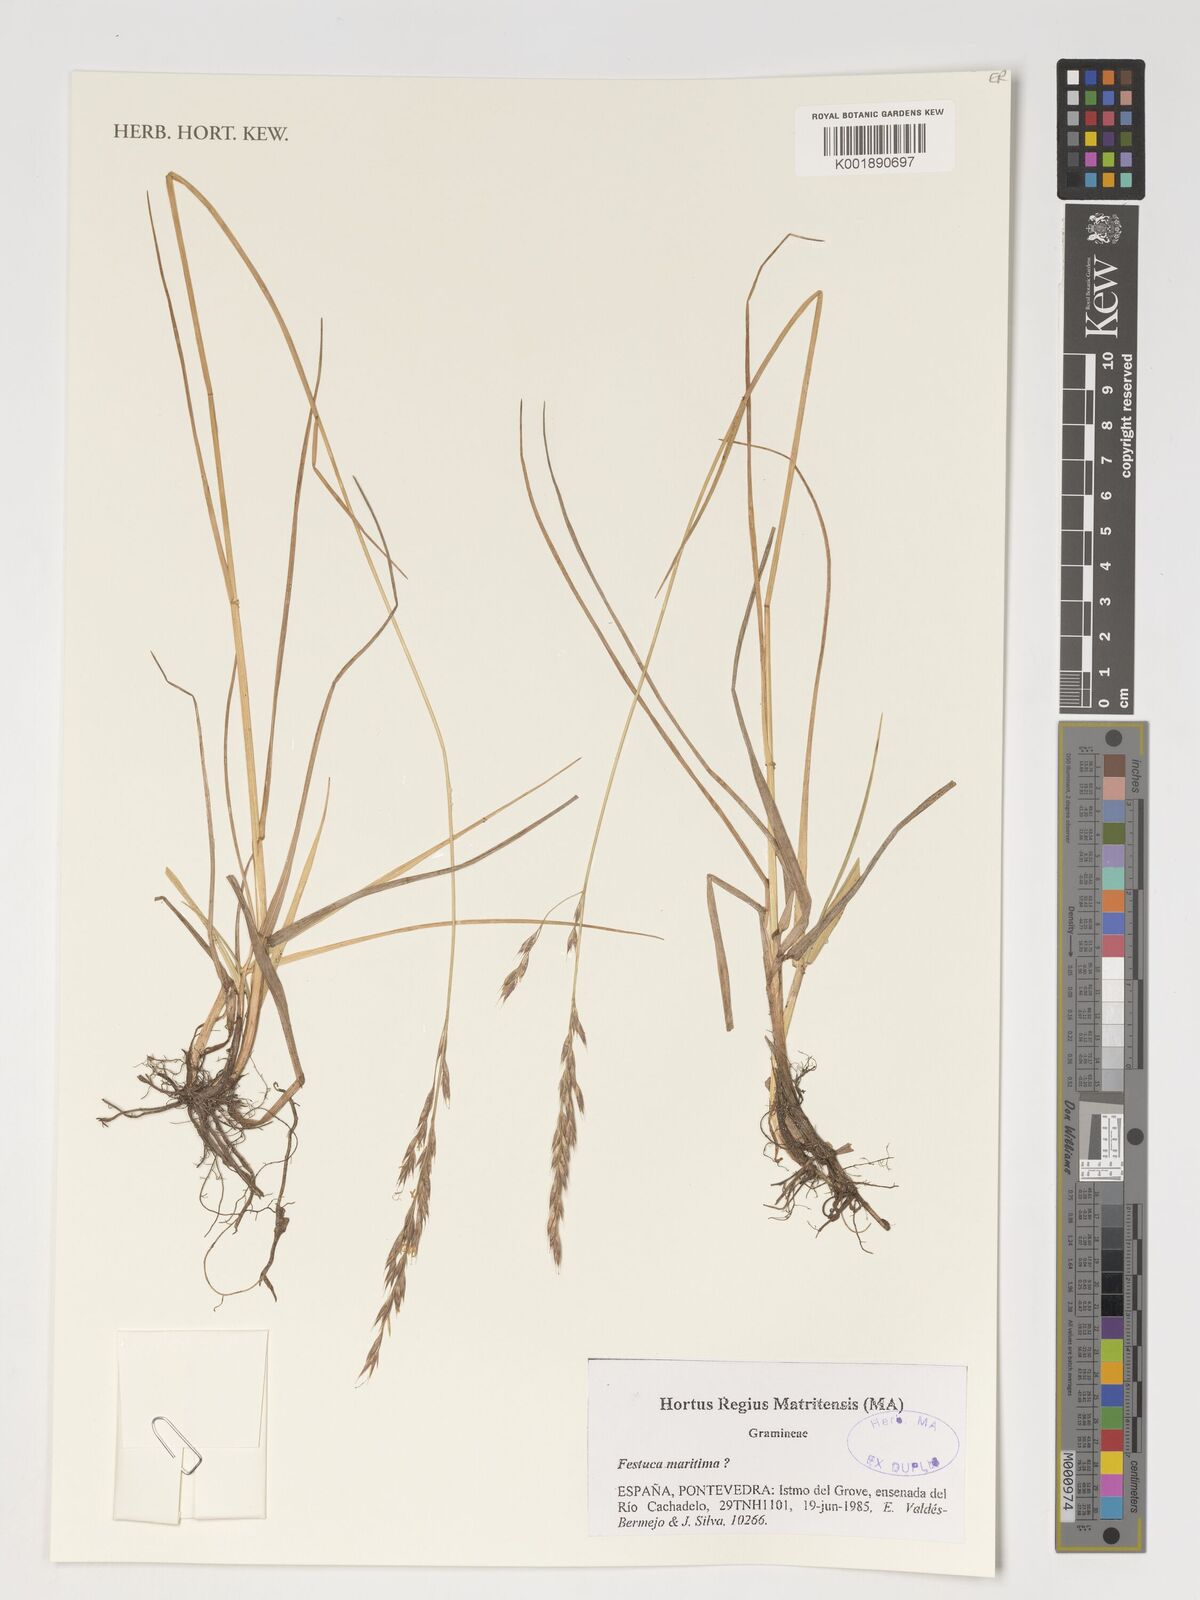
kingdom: Plantae
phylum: Tracheophyta
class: Liliopsida
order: Poales
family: Poaceae
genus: Festuca
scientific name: Festuca maritima
